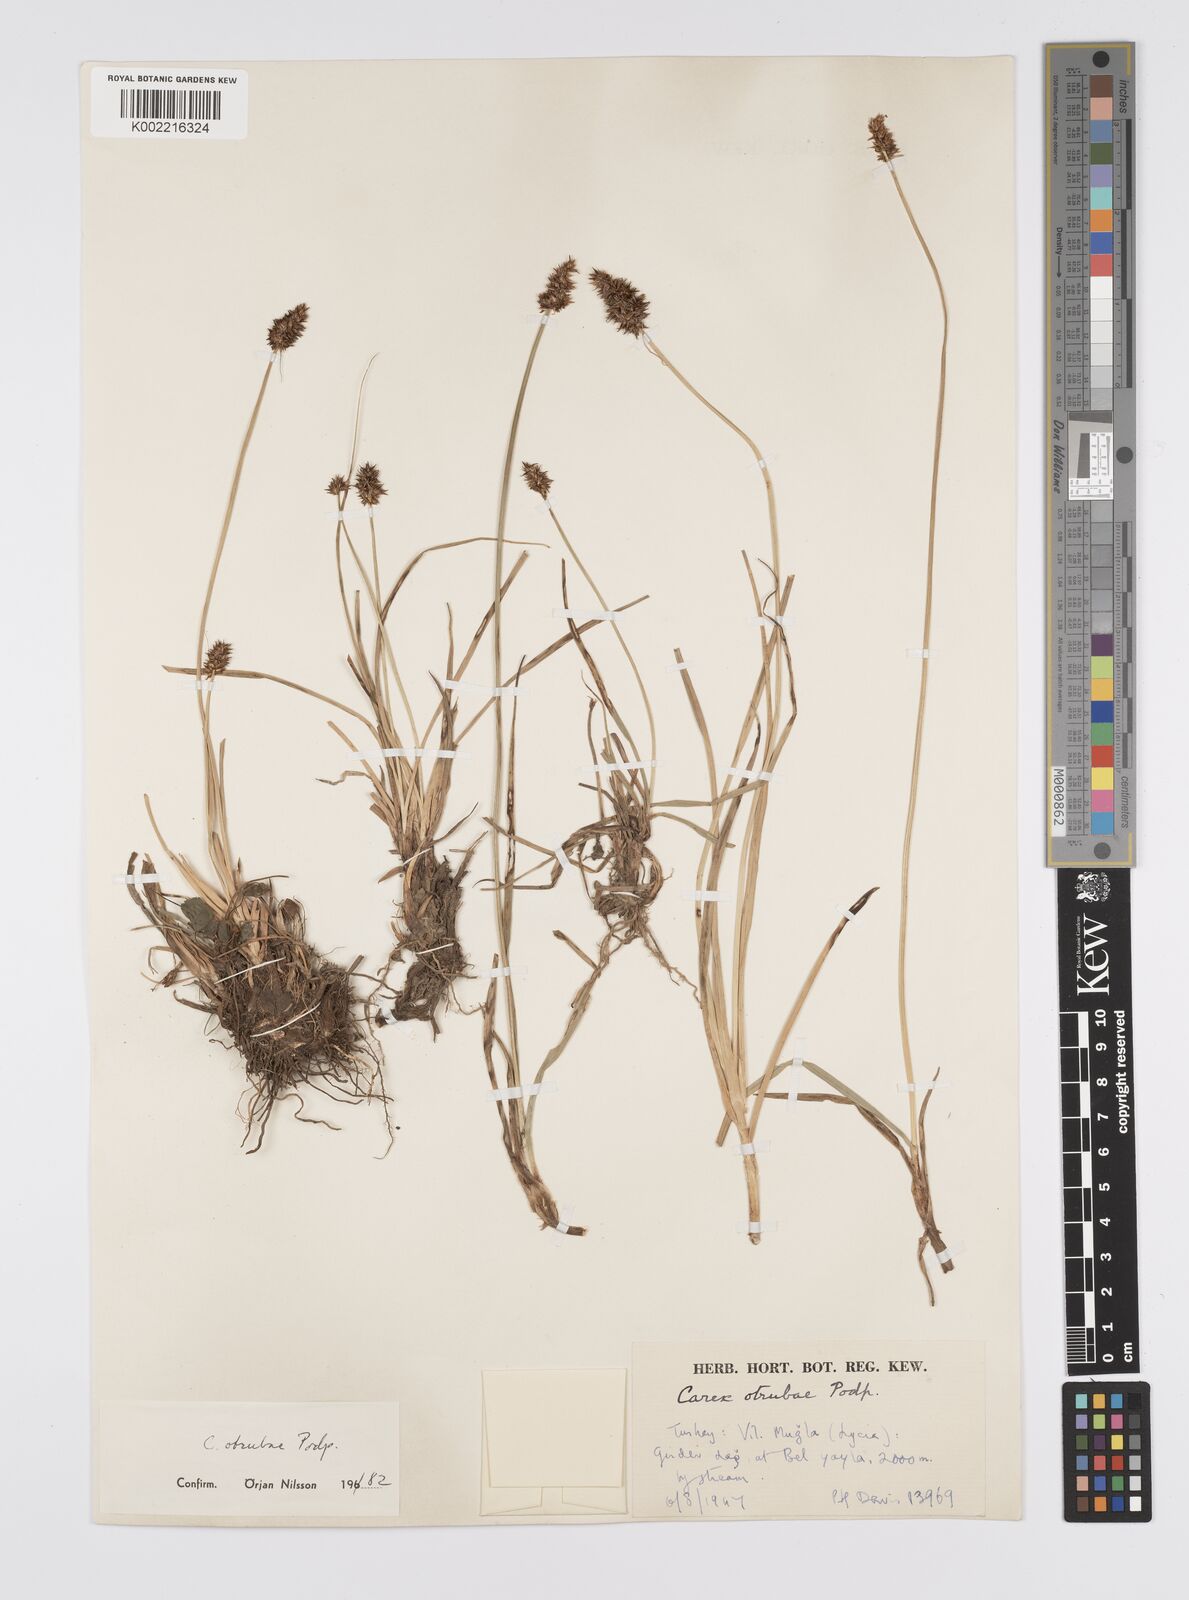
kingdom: Plantae
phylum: Tracheophyta
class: Liliopsida
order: Poales
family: Cyperaceae
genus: Carex
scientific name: Carex otrubae
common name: False fox-sedge
